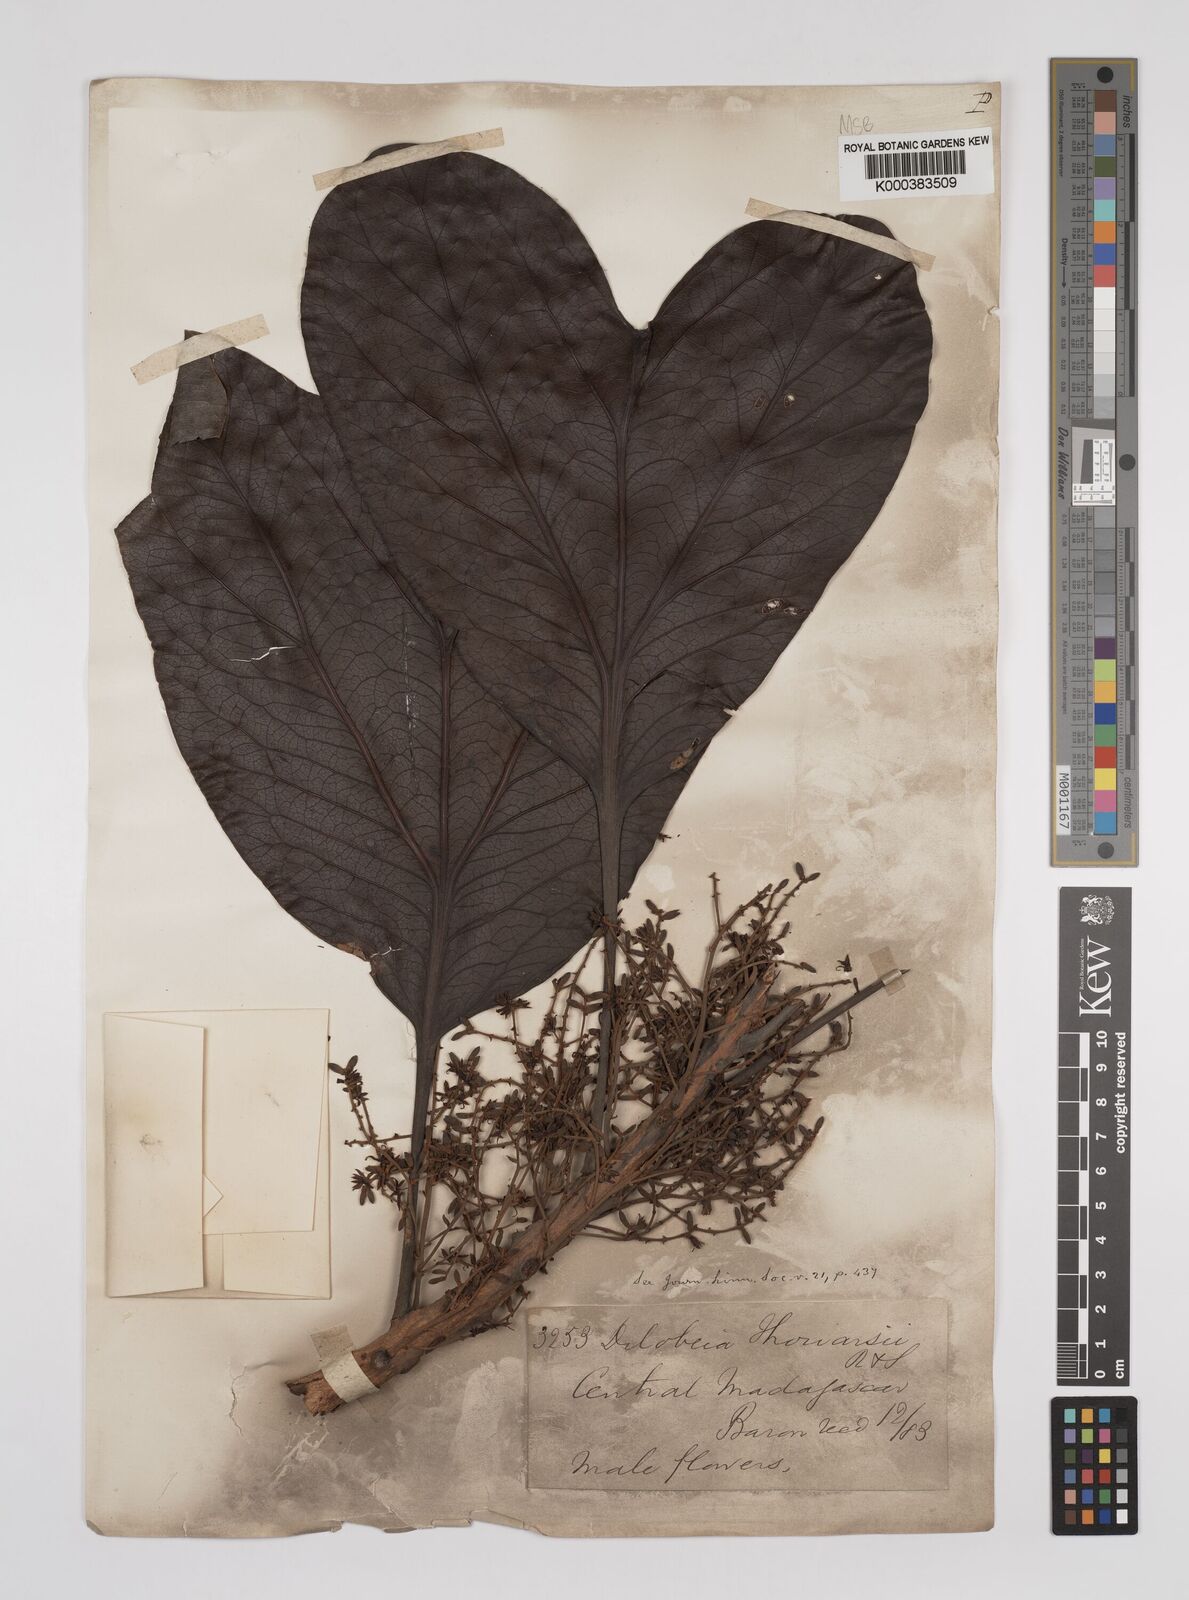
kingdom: Plantae
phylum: Tracheophyta
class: Magnoliopsida
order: Proteales
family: Proteaceae
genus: Dilobeia
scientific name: Dilobeia thouarsii
